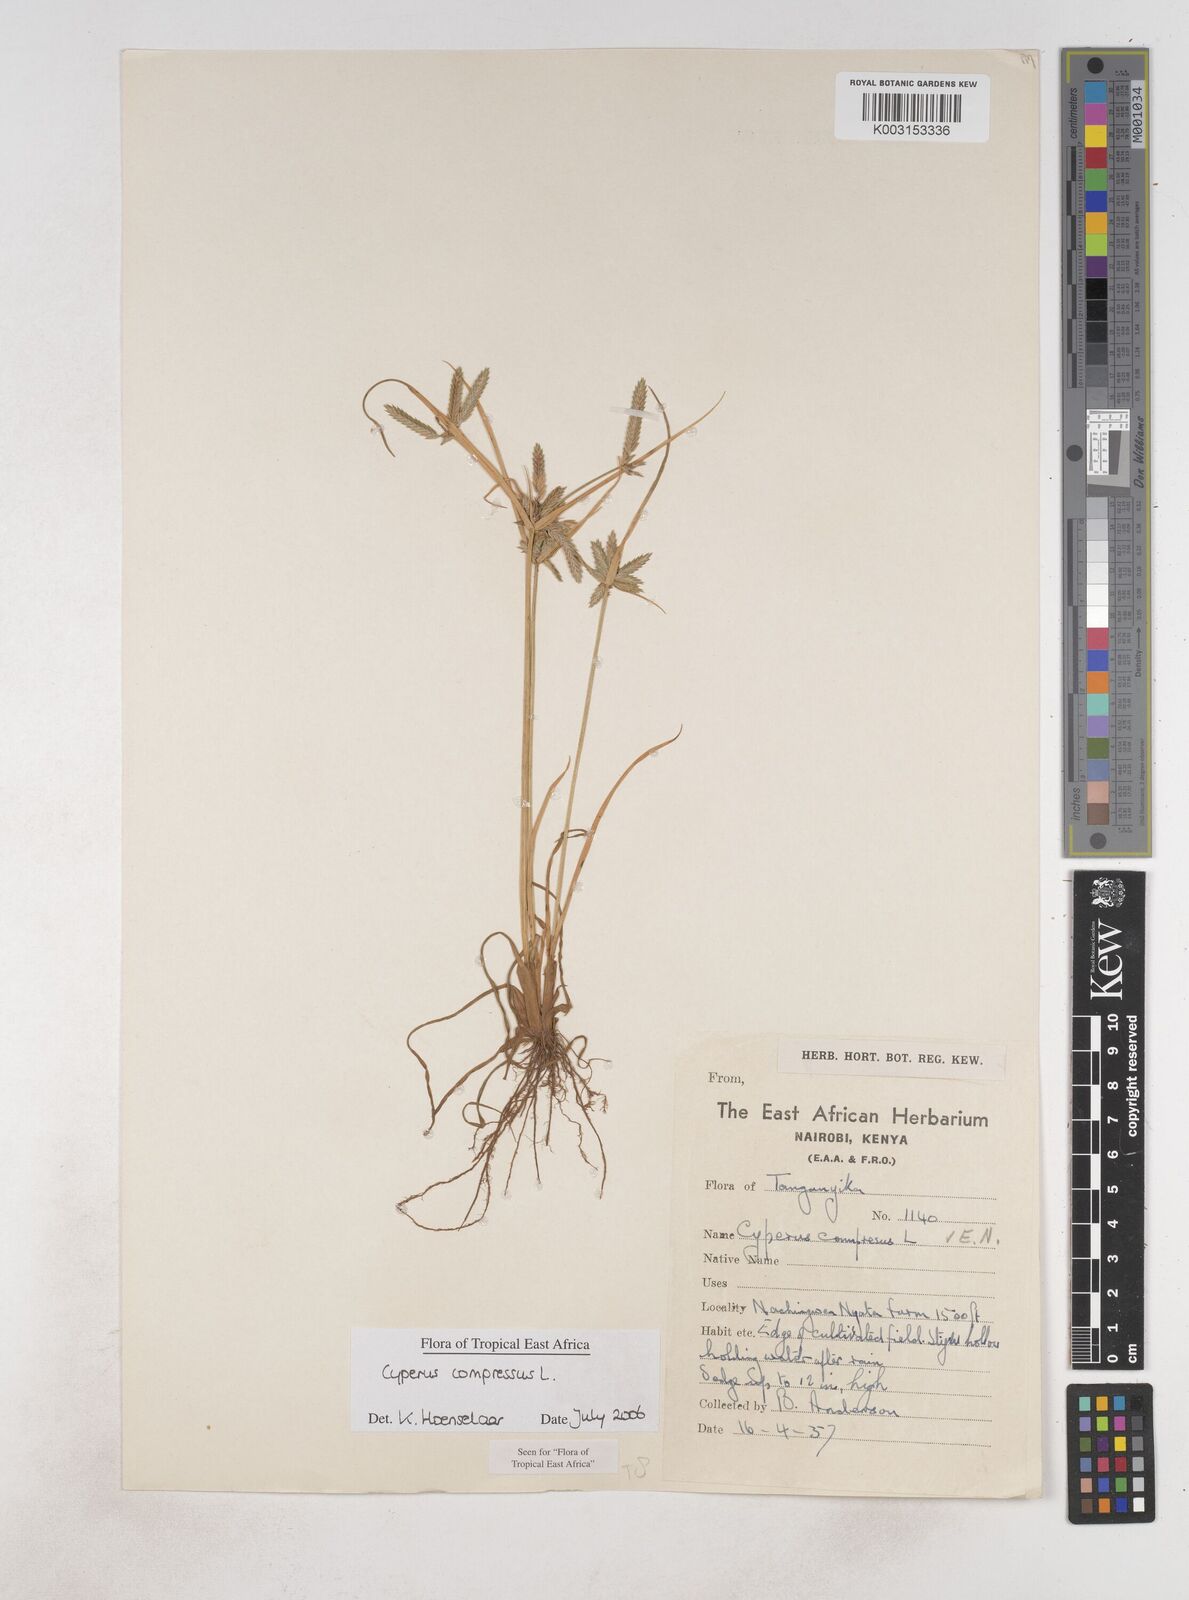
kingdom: Plantae
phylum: Tracheophyta
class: Liliopsida
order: Poales
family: Cyperaceae
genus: Cyperus
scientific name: Cyperus compressus
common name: Poorland flatsedge
